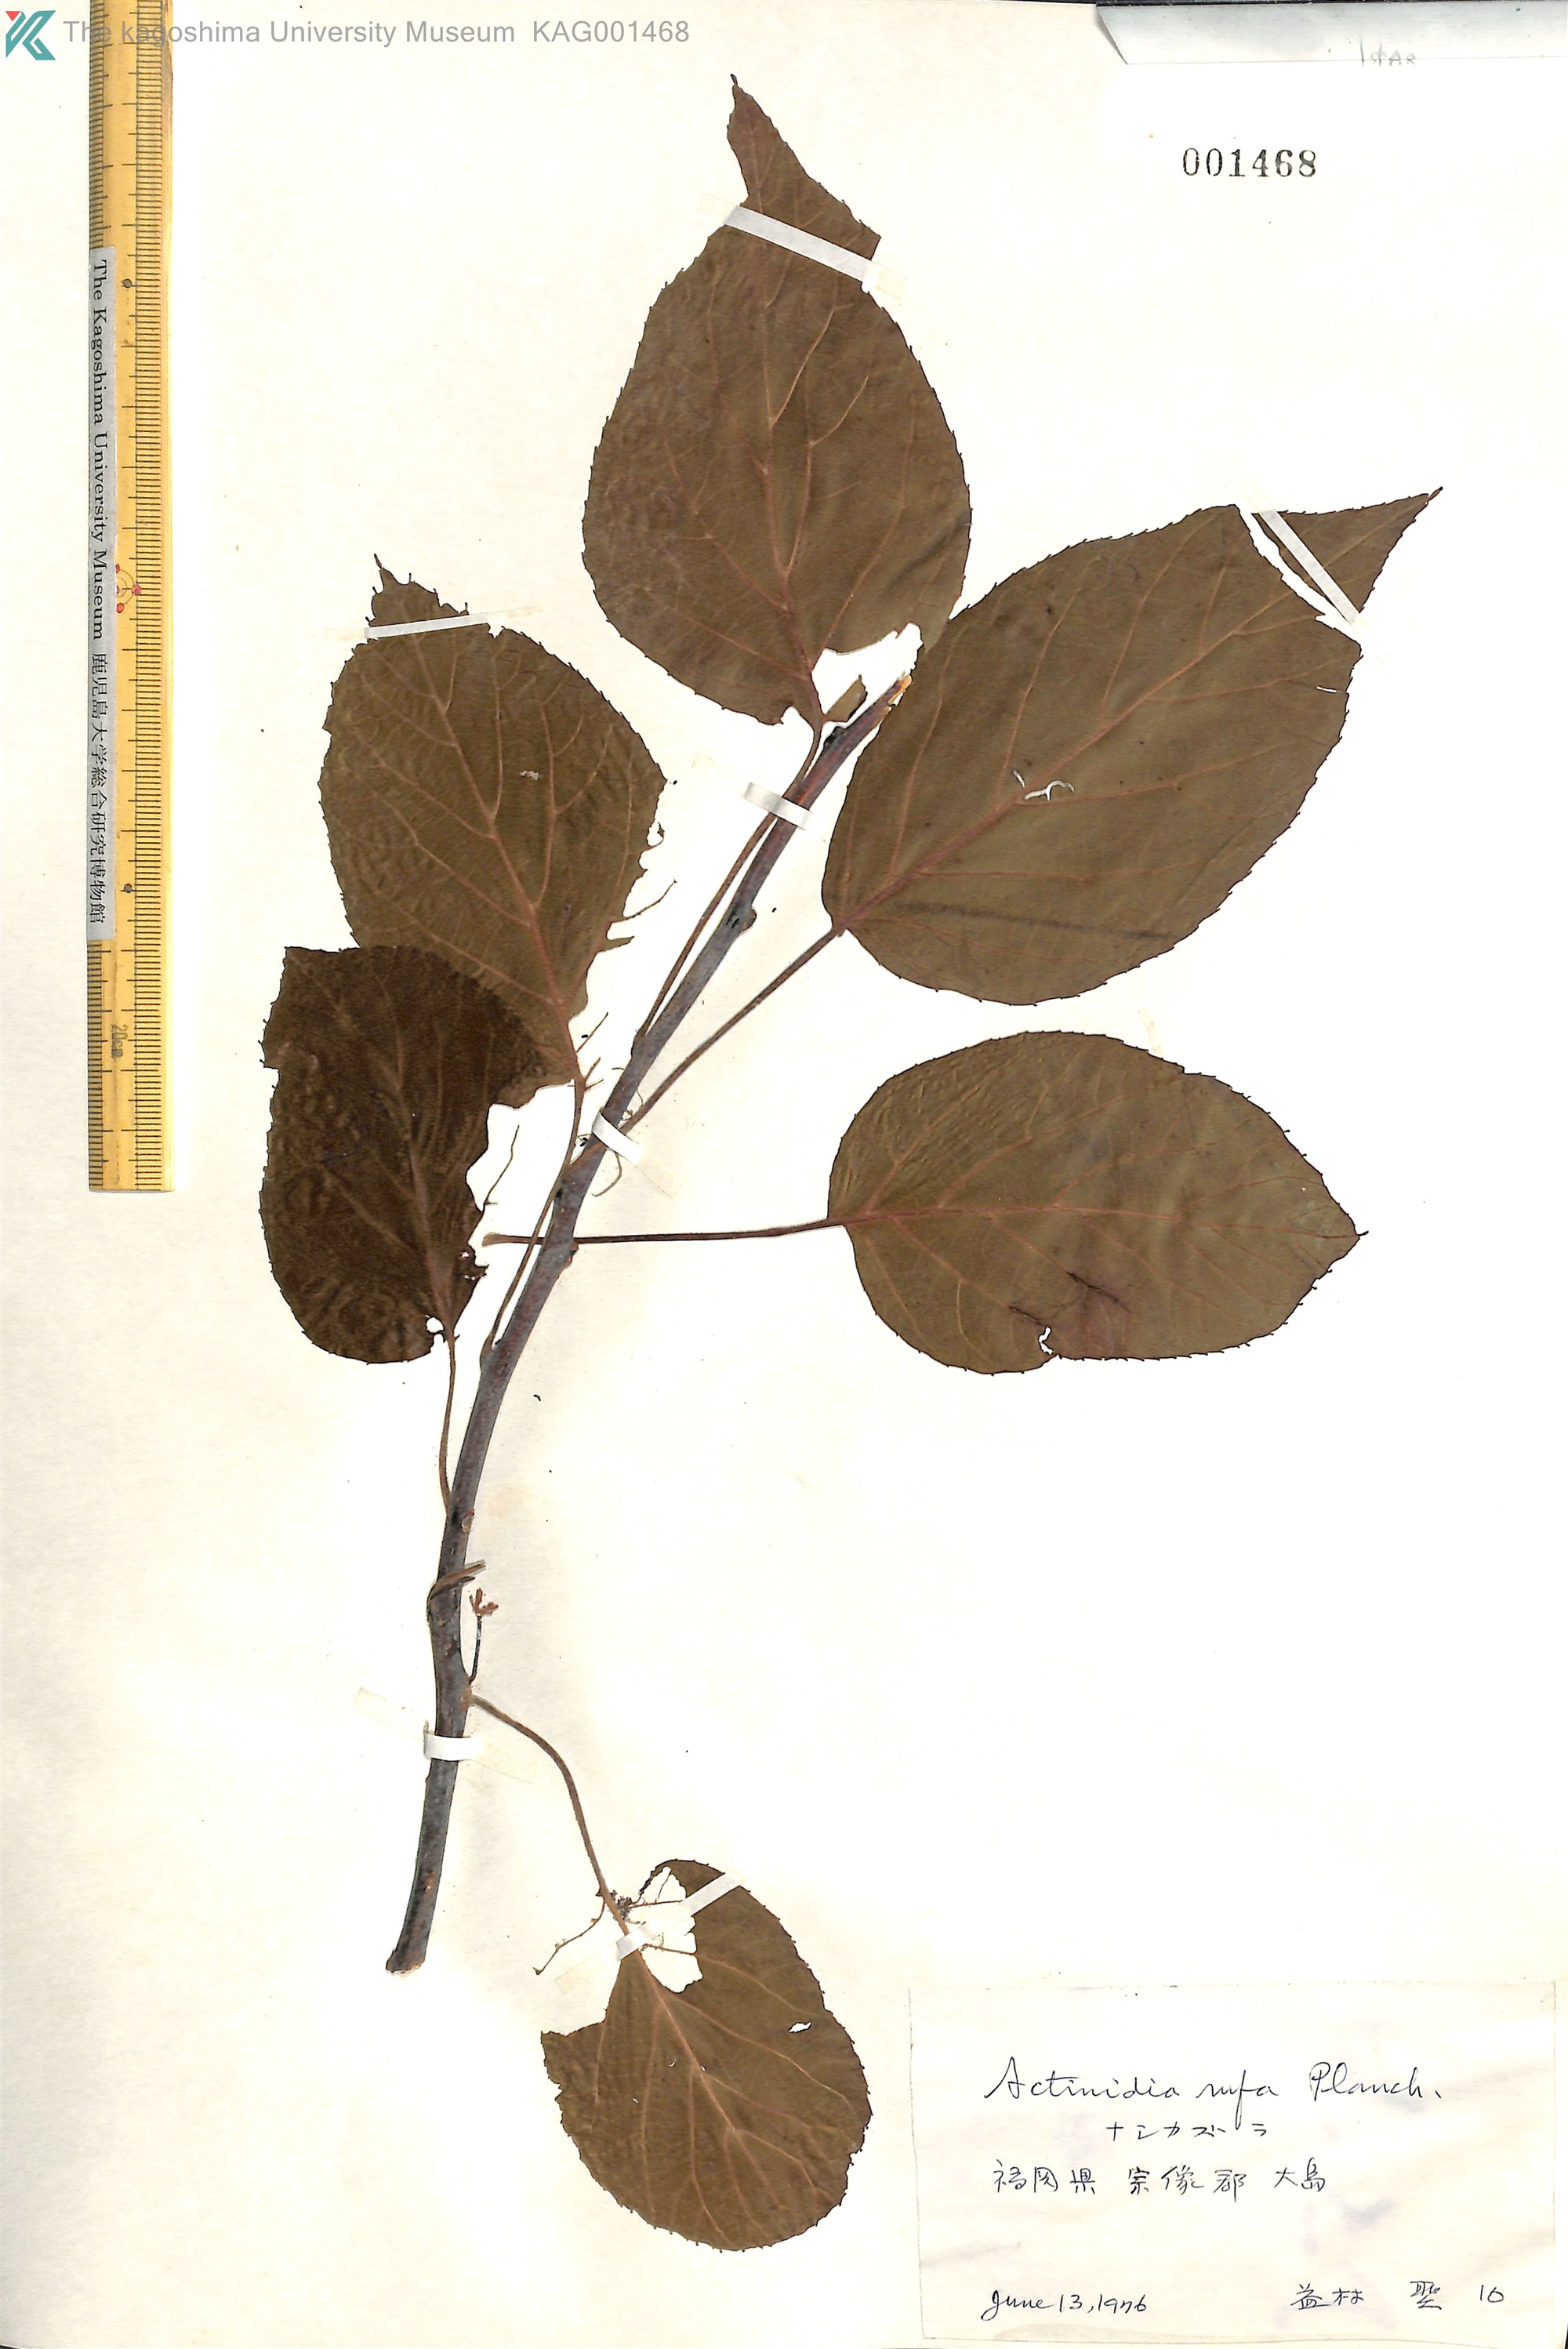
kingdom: Plantae
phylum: Tracheophyta
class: Magnoliopsida
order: Ericales
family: Actinidiaceae
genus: Actinidia
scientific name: Actinidia rufa
